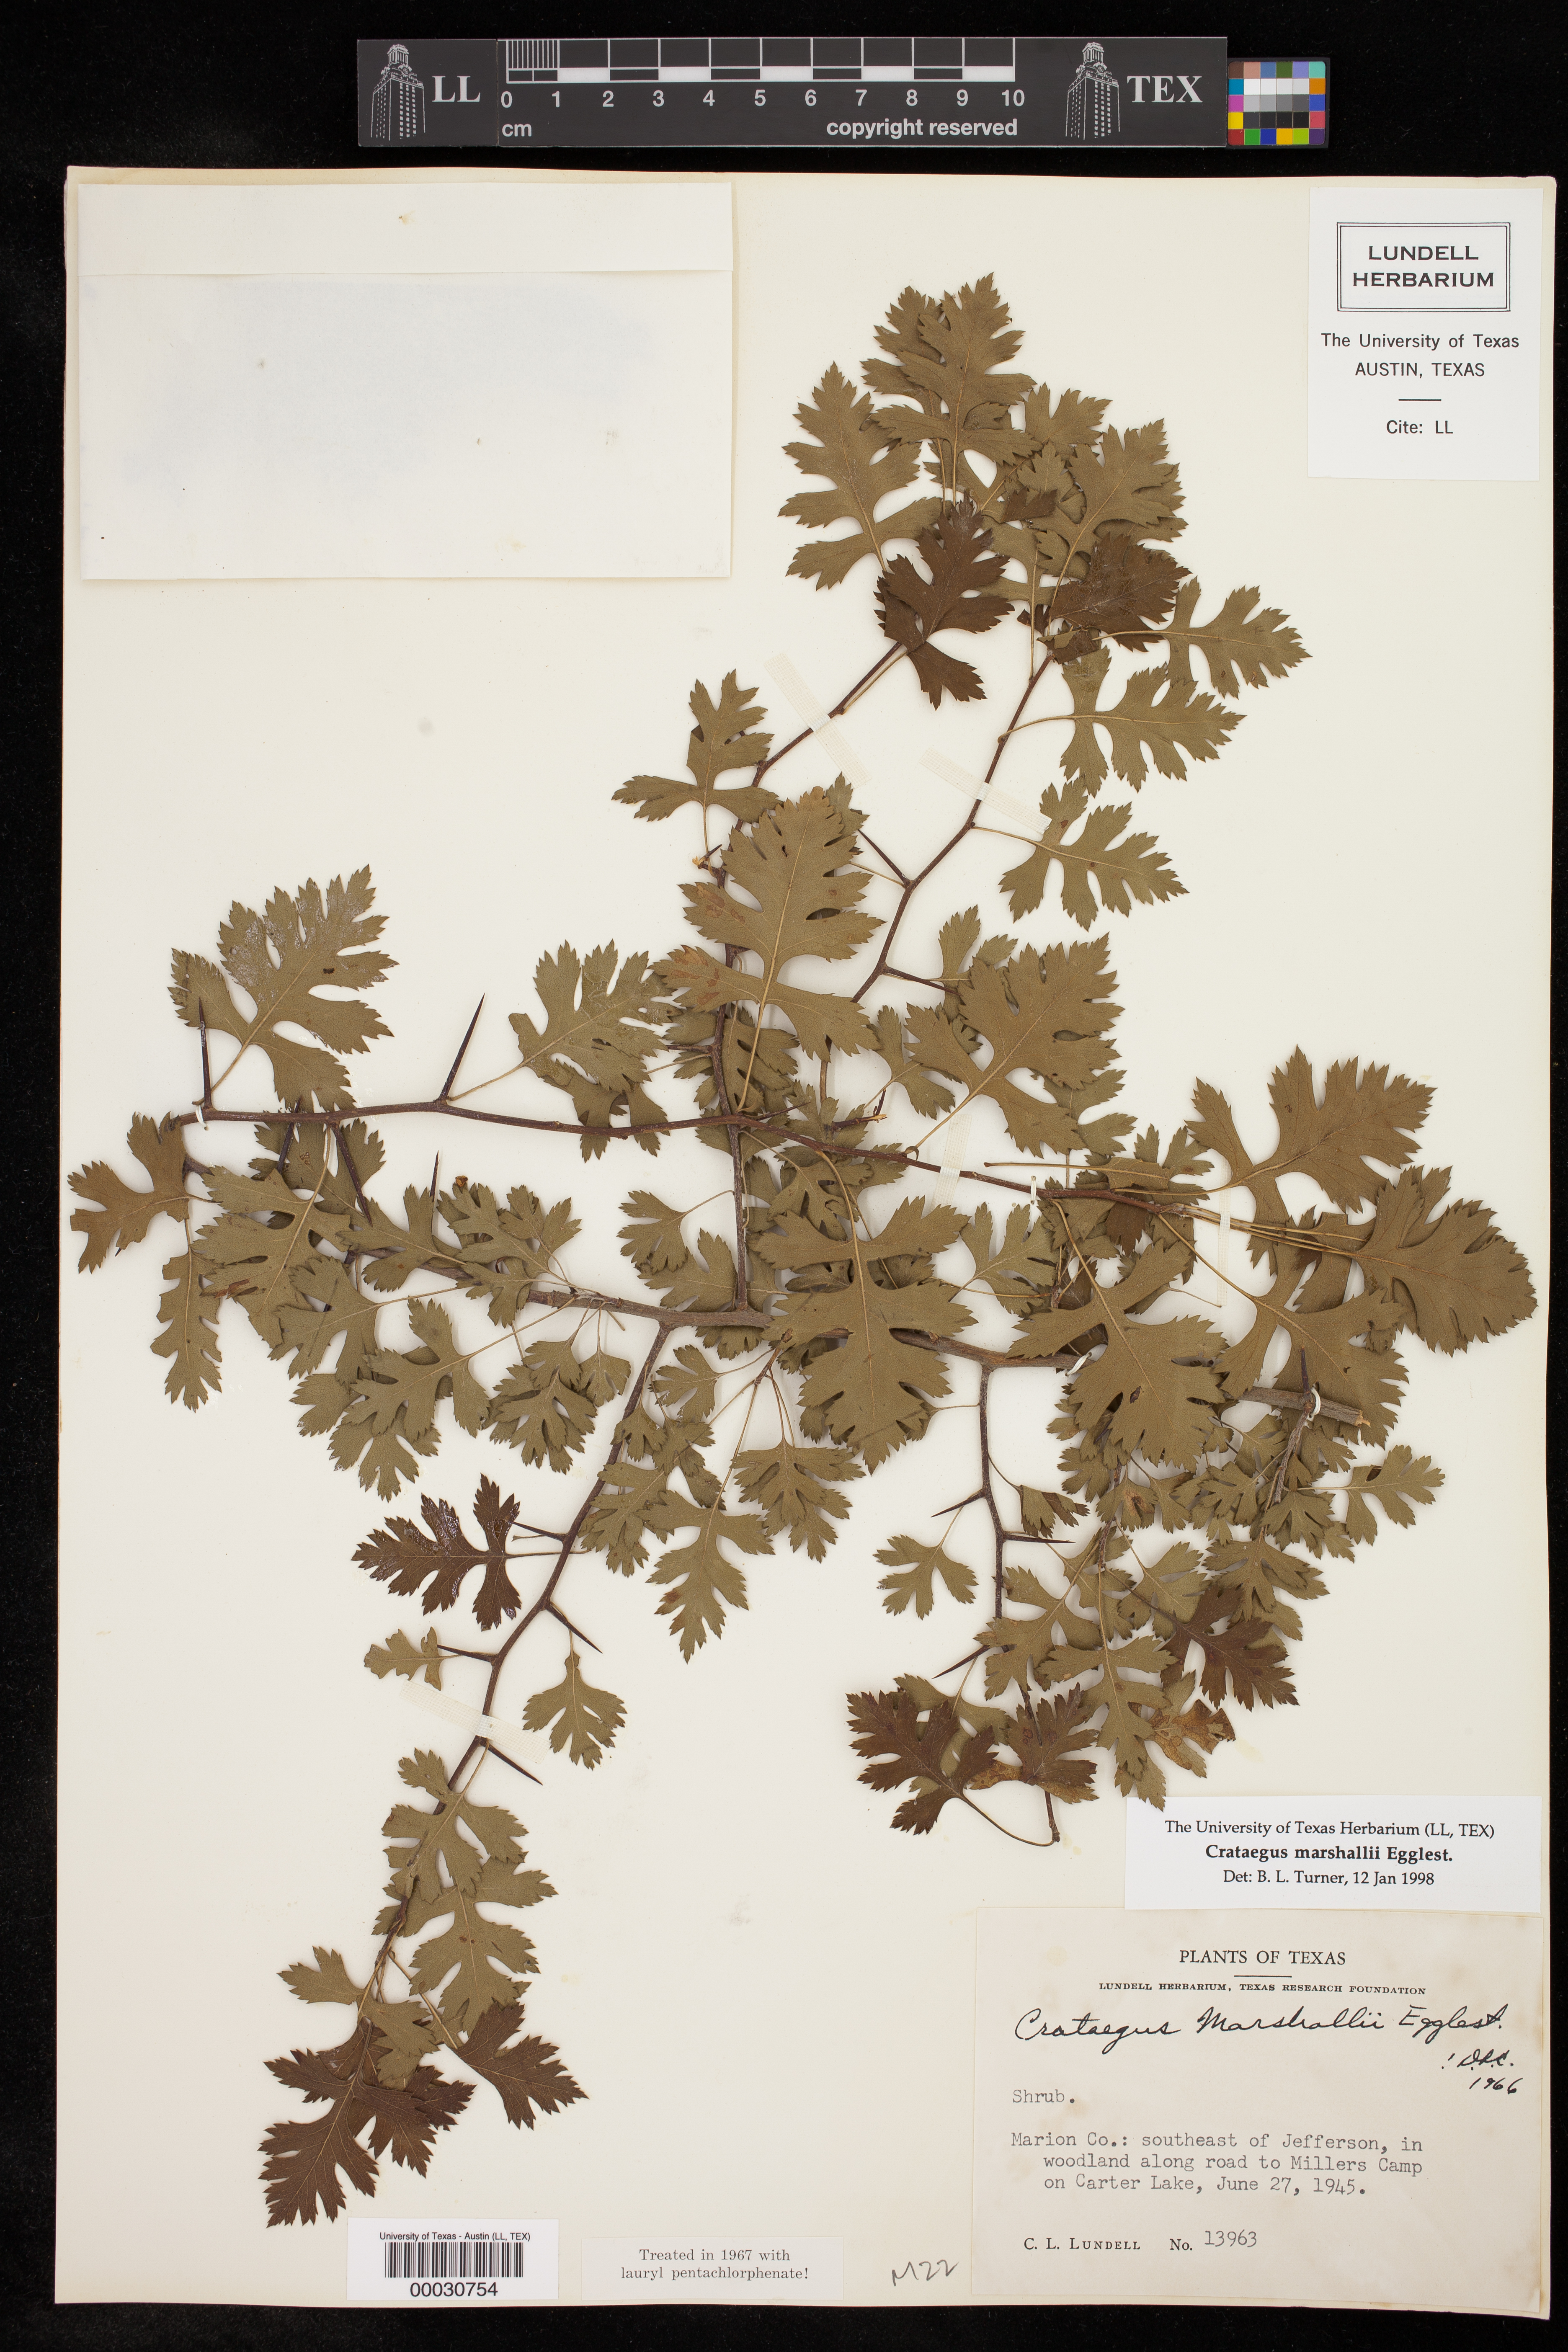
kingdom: Plantae
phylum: Tracheophyta
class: Magnoliopsida
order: Rosales
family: Rosaceae
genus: Crataegus
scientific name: Crataegus marshallii
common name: Parsley-hawthorn
